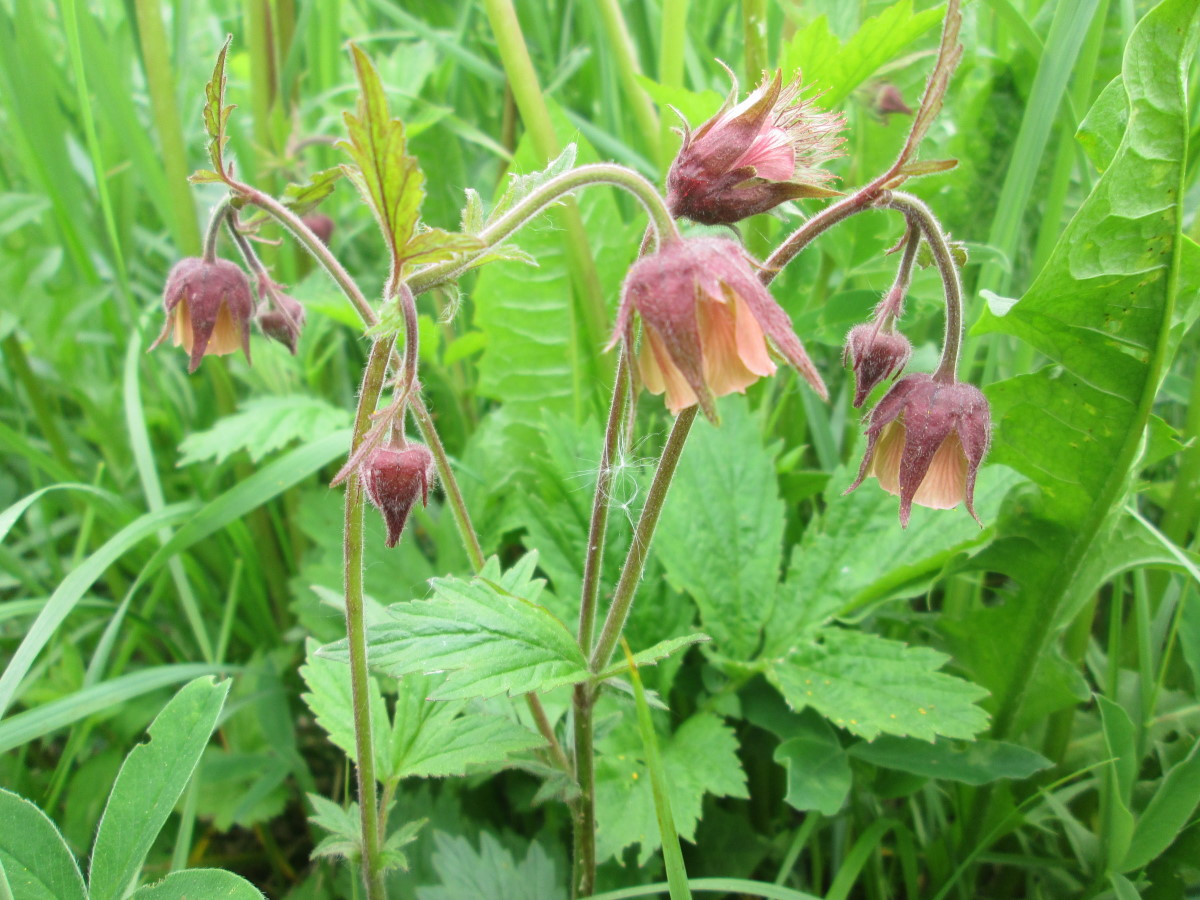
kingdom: Plantae
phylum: Tracheophyta
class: Magnoliopsida
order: Rosales
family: Rosaceae
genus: Geum
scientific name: Geum rivale
